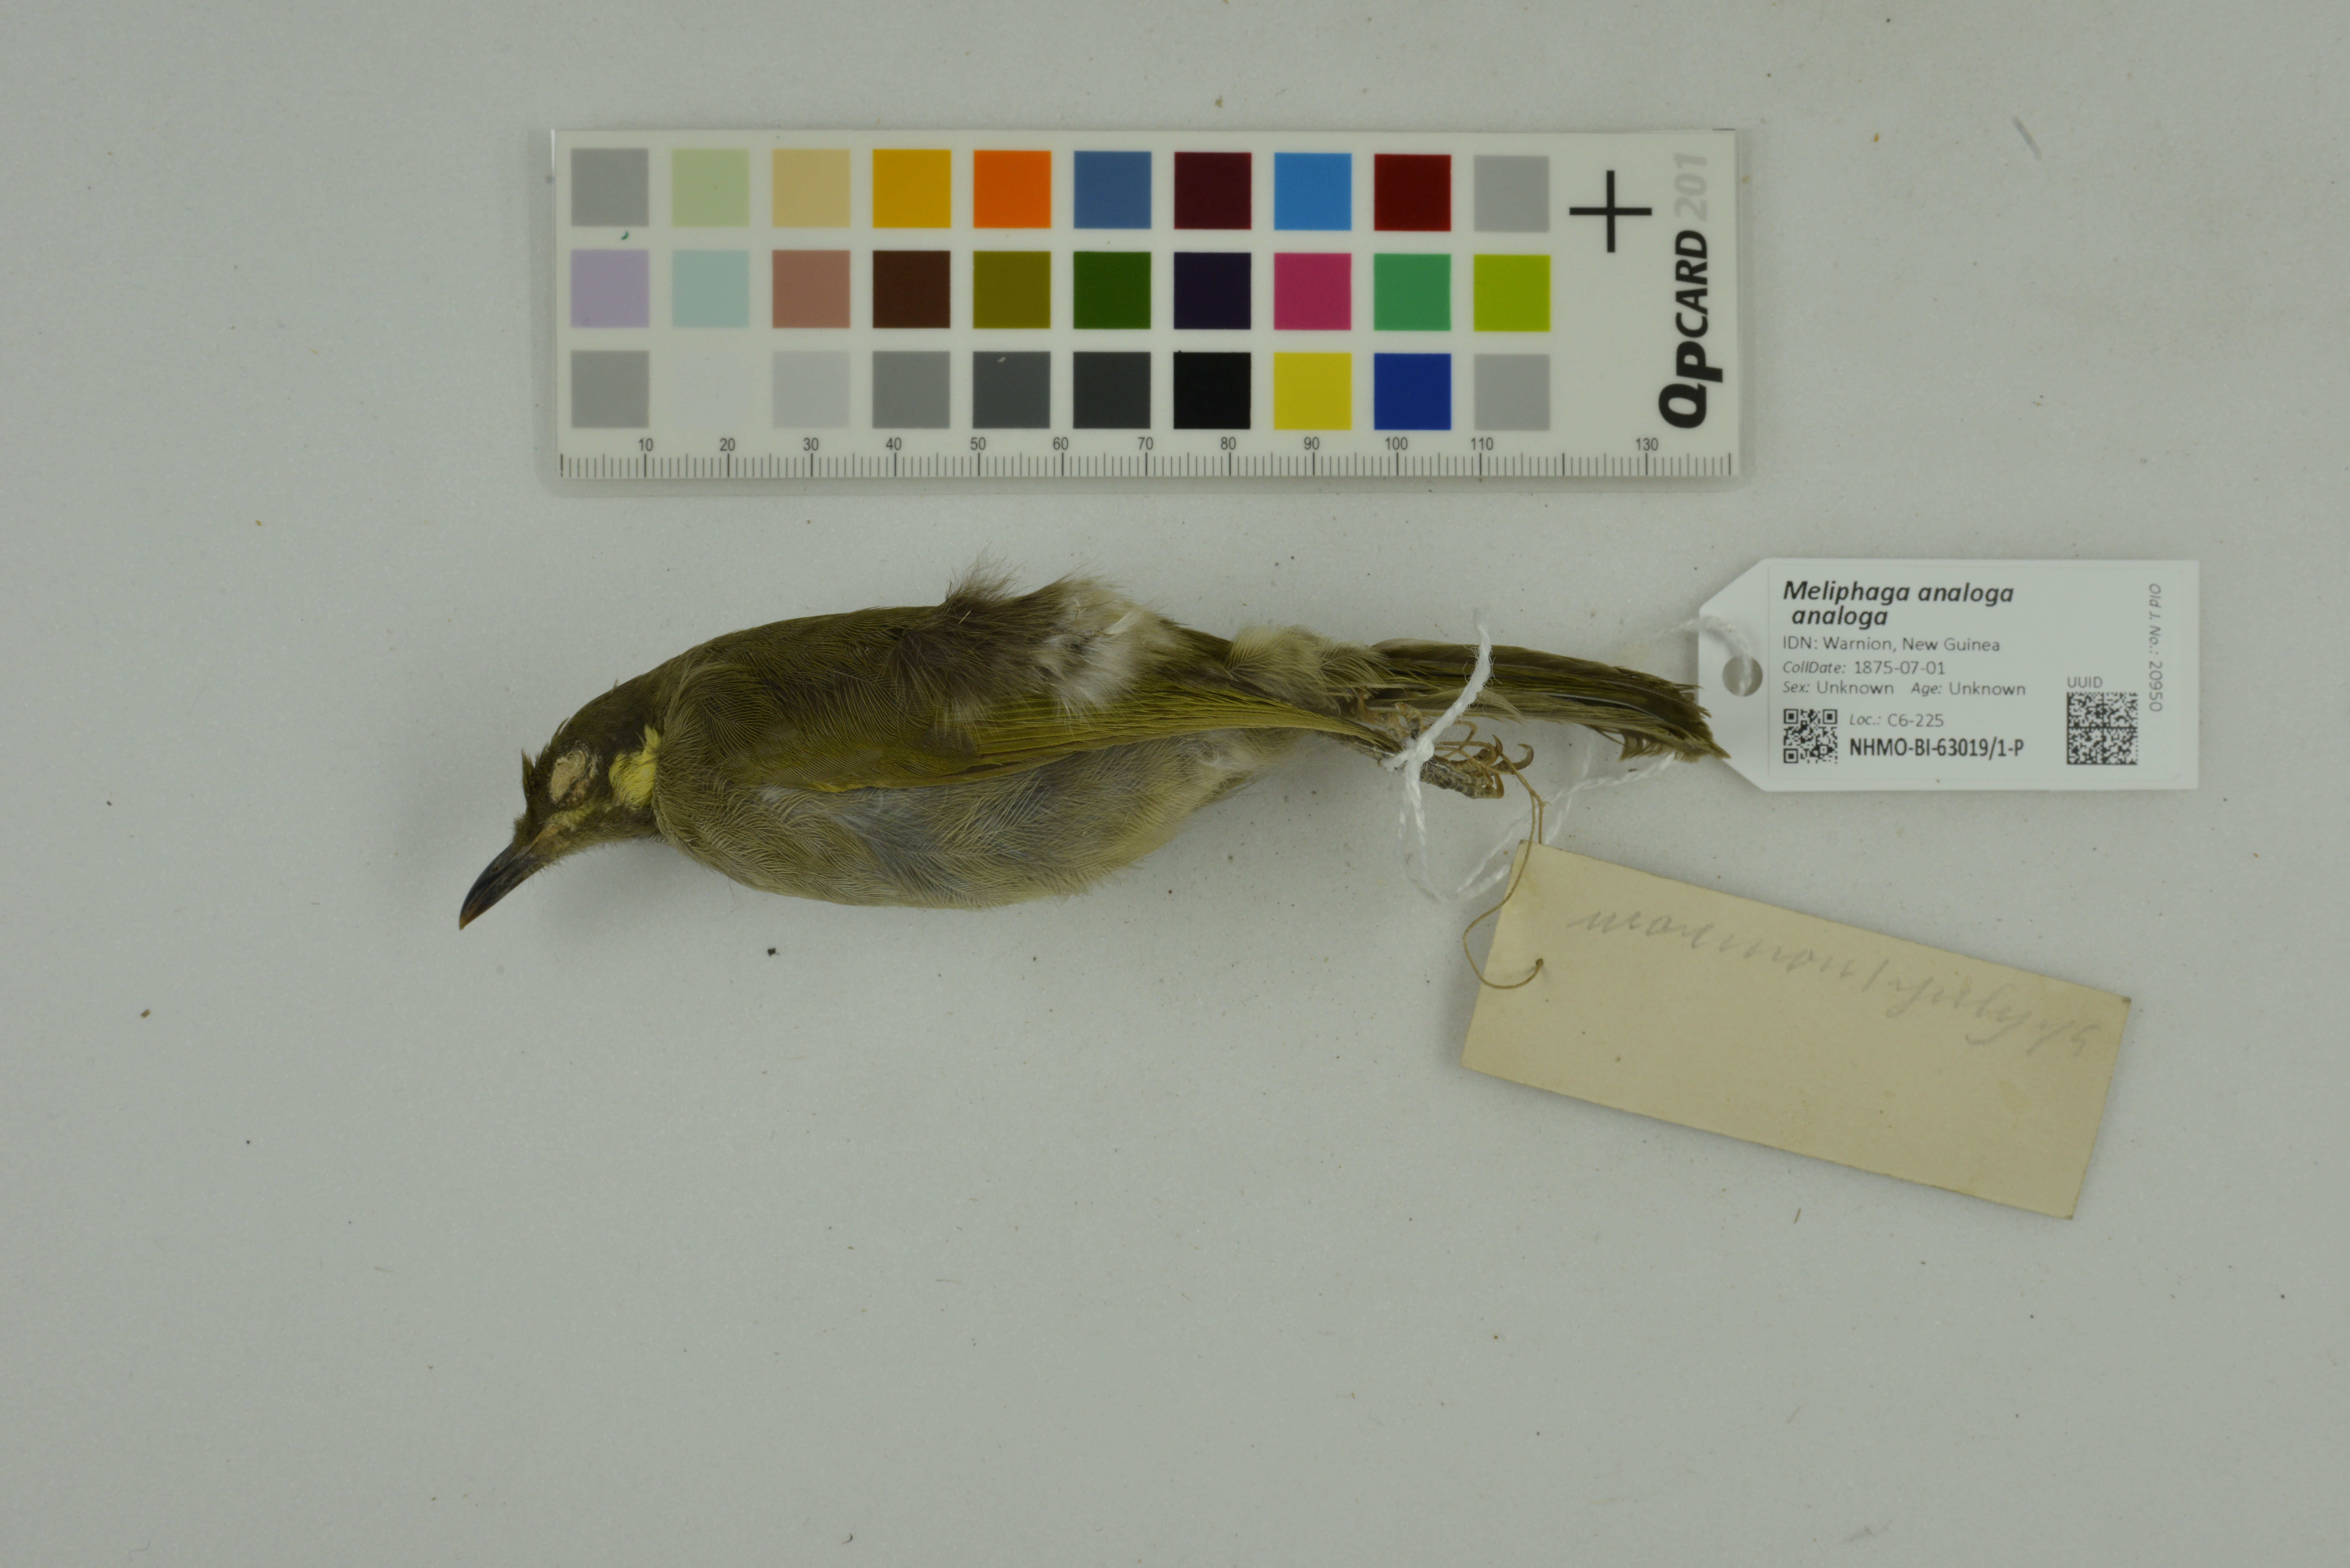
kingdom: Animalia
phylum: Chordata
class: Aves
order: Passeriformes
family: Meliphagidae
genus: Microptilotis
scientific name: Microptilotis analogus
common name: Mimic honeyeater
